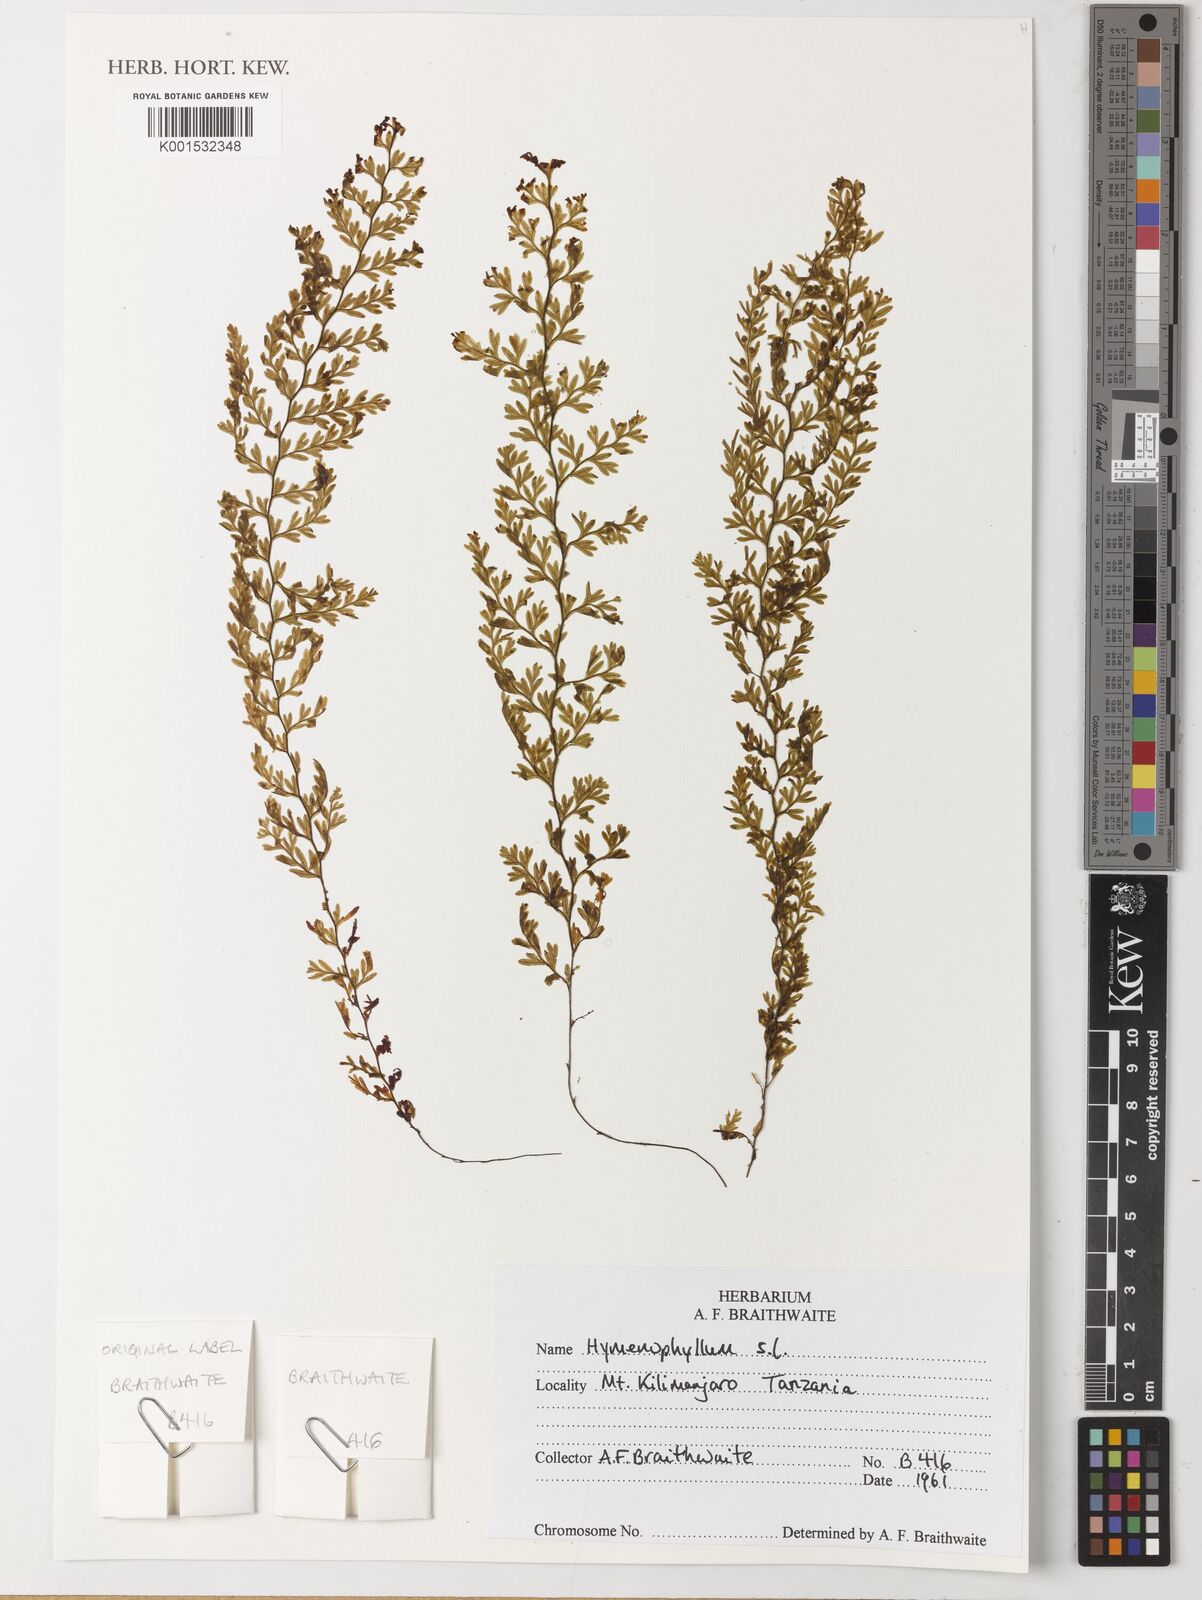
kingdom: Plantae
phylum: Tracheophyta
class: Polypodiopsida
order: Hymenophyllales
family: Hymenophyllaceae
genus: Hymenophyllum
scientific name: Hymenophyllum
